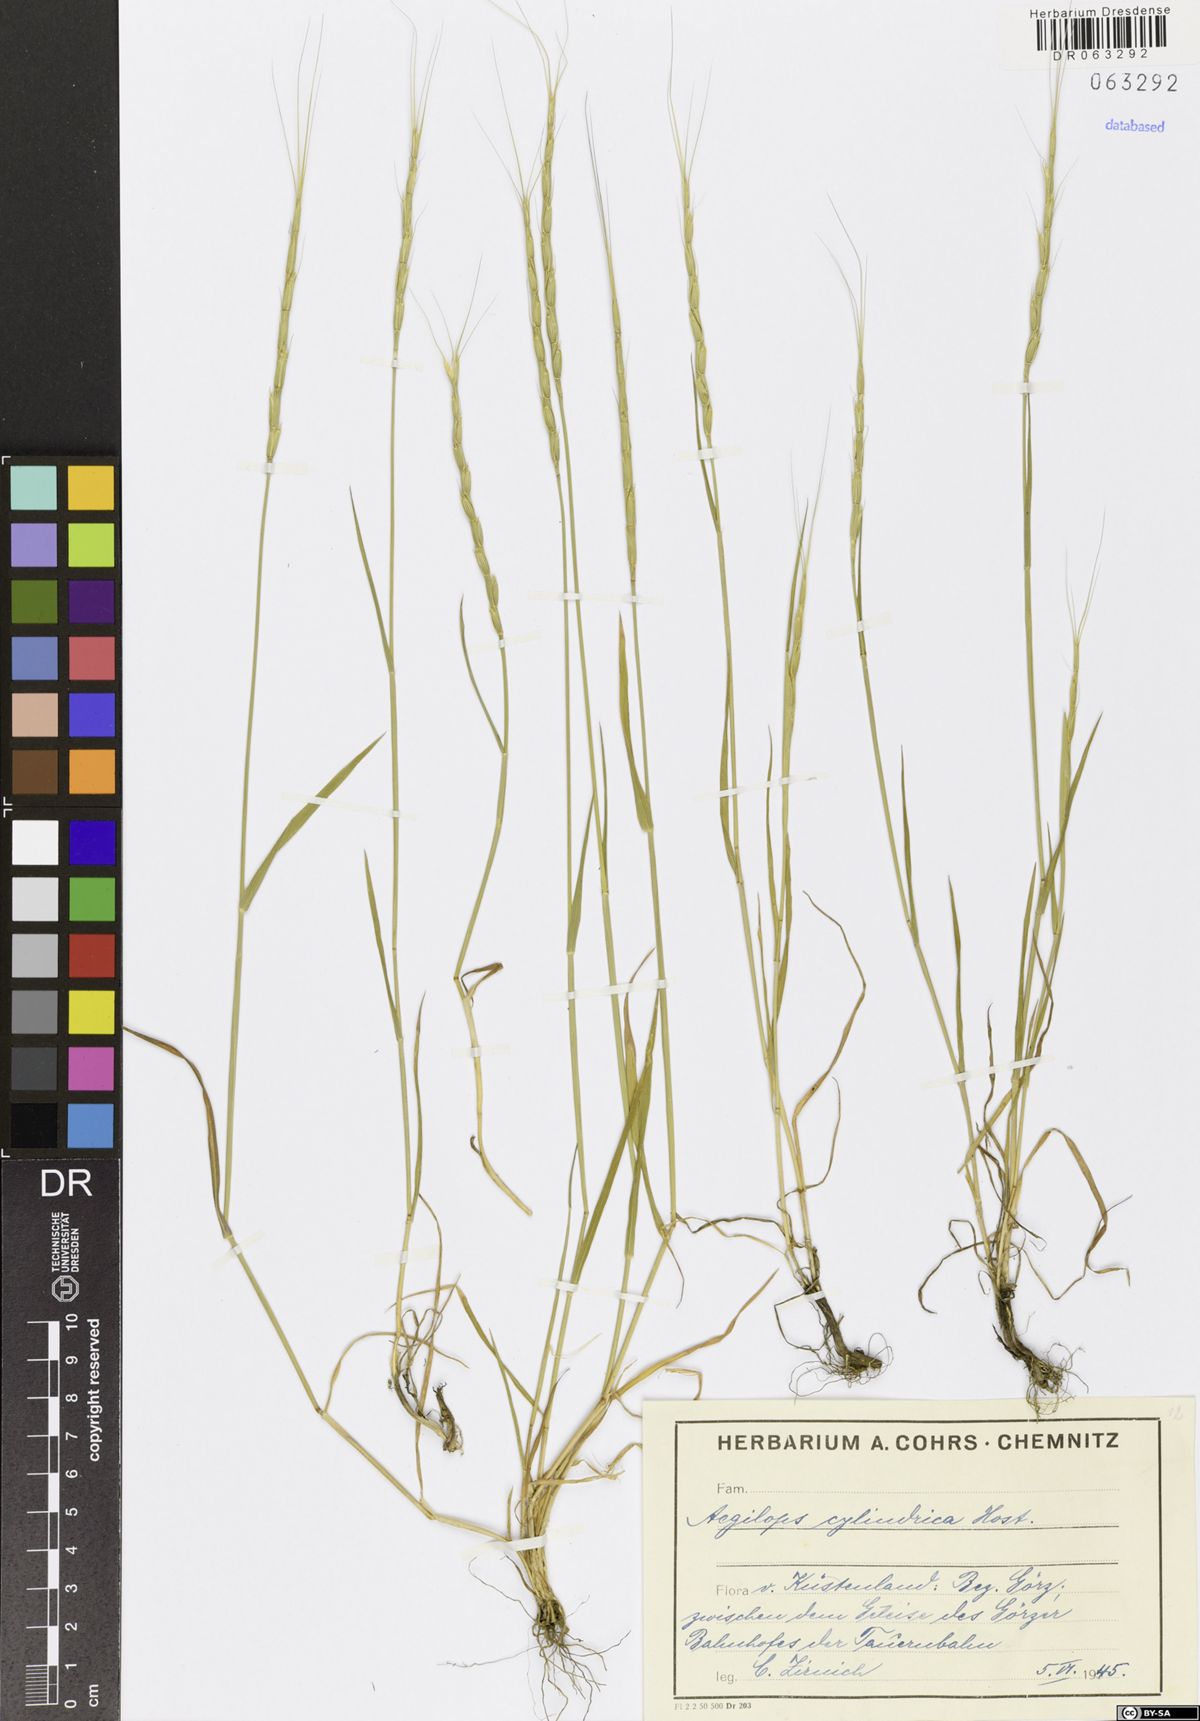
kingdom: Plantae
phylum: Tracheophyta
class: Liliopsida
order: Poales
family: Poaceae
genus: Aegilops
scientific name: Aegilops cylindrica
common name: Jointed goatgrass
